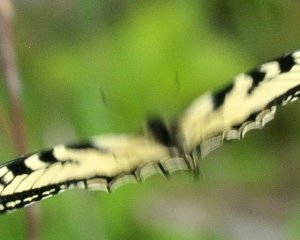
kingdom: Animalia
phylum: Arthropoda
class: Insecta
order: Lepidoptera
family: Papilionidae
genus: Pterourus
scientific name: Pterourus canadensis
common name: Canadian Tiger Swallowtail
